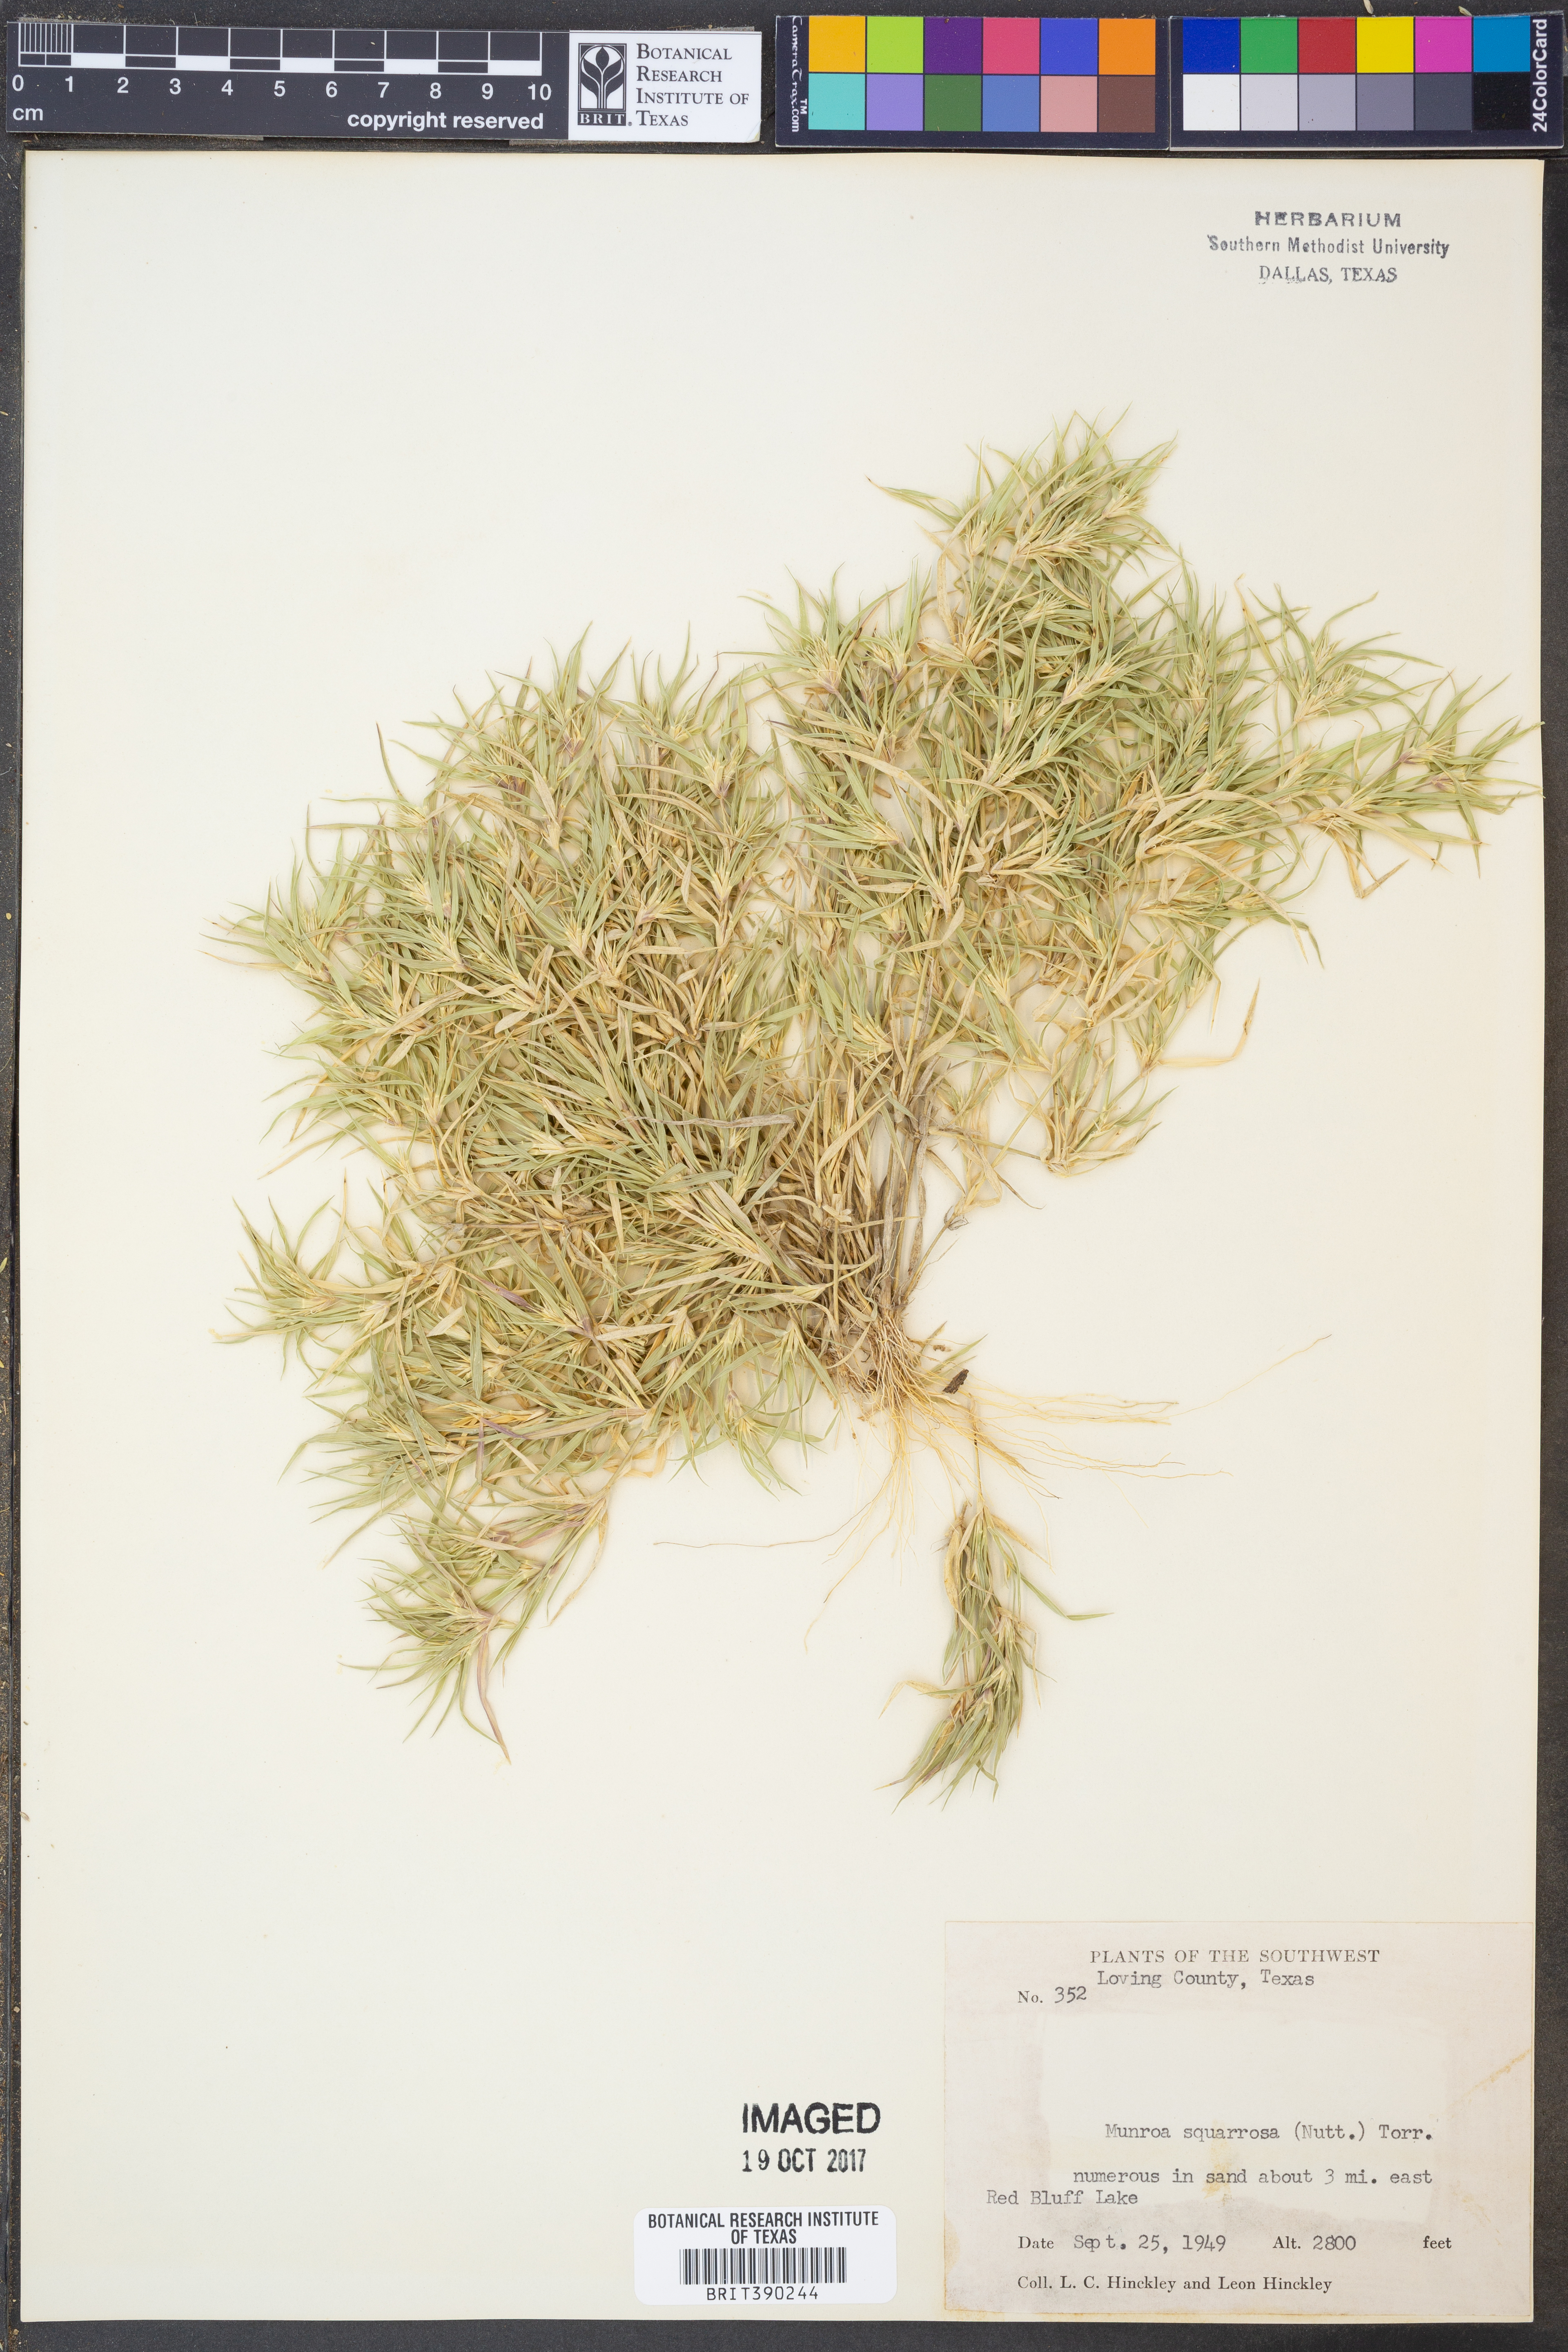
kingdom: Plantae
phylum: Tracheophyta
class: Liliopsida
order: Poales
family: Poaceae
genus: Munroa
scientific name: Munroa squarrosa
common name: False buffalo grass
